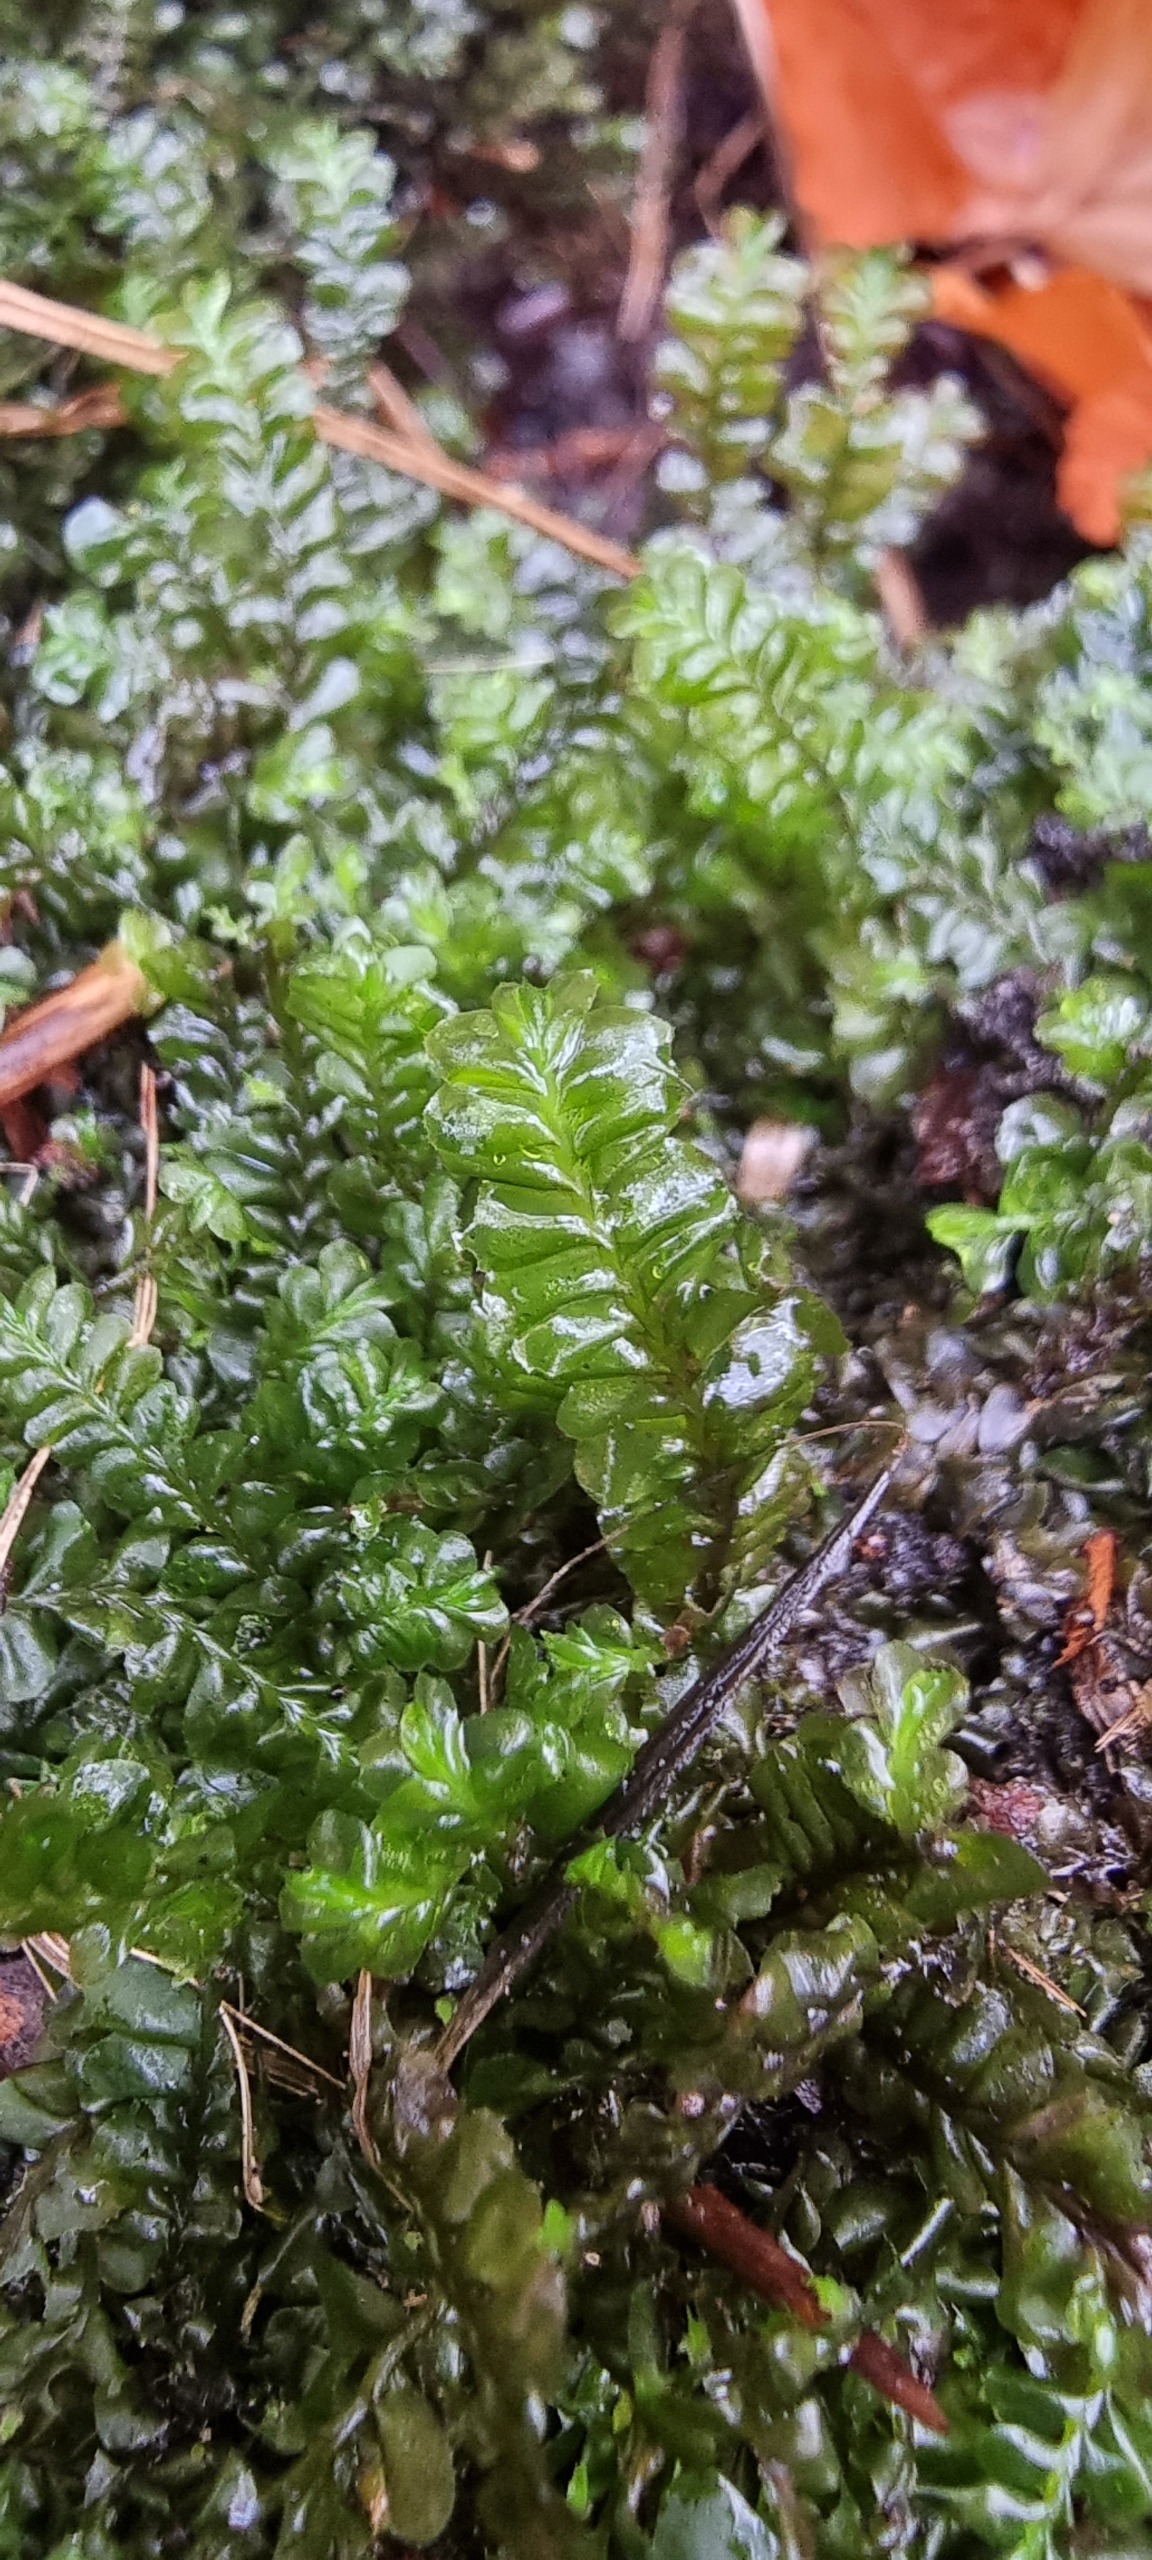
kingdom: Plantae
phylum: Marchantiophyta
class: Jungermanniopsida
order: Jungermanniales
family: Plagiochilaceae
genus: Plagiochila
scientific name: Plagiochila asplenioides
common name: Radeløv-hindeblad
